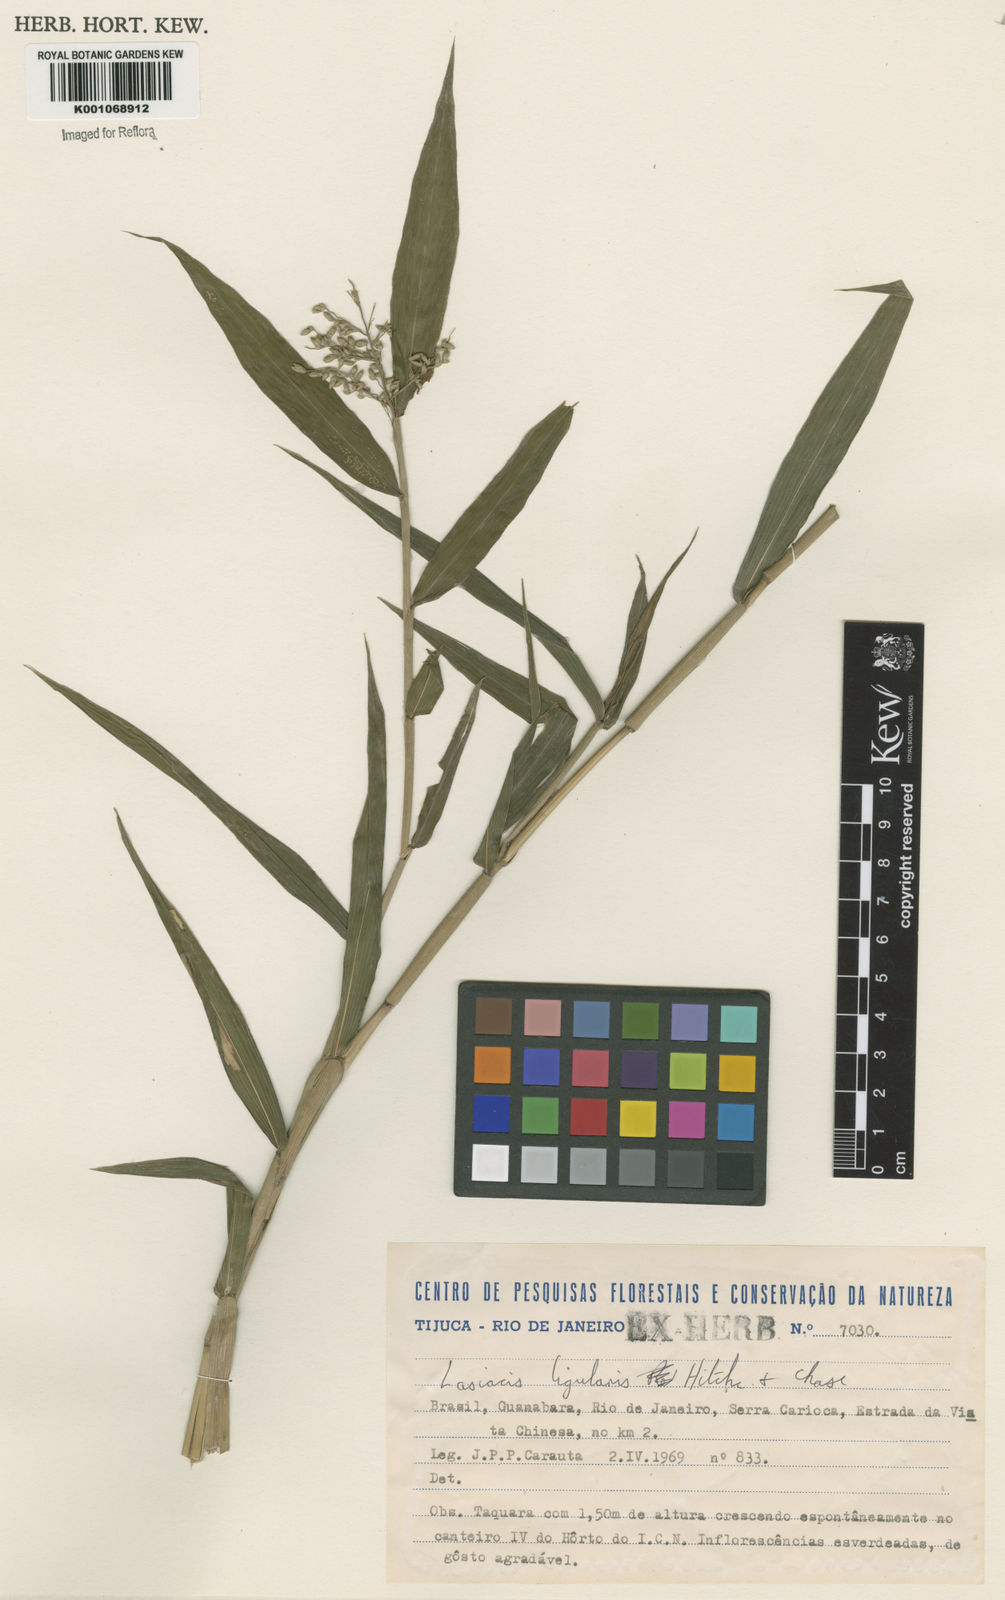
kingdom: Plantae
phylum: Tracheophyta
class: Liliopsida
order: Poales
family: Poaceae
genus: Lasiacis
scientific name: Lasiacis ligulata
